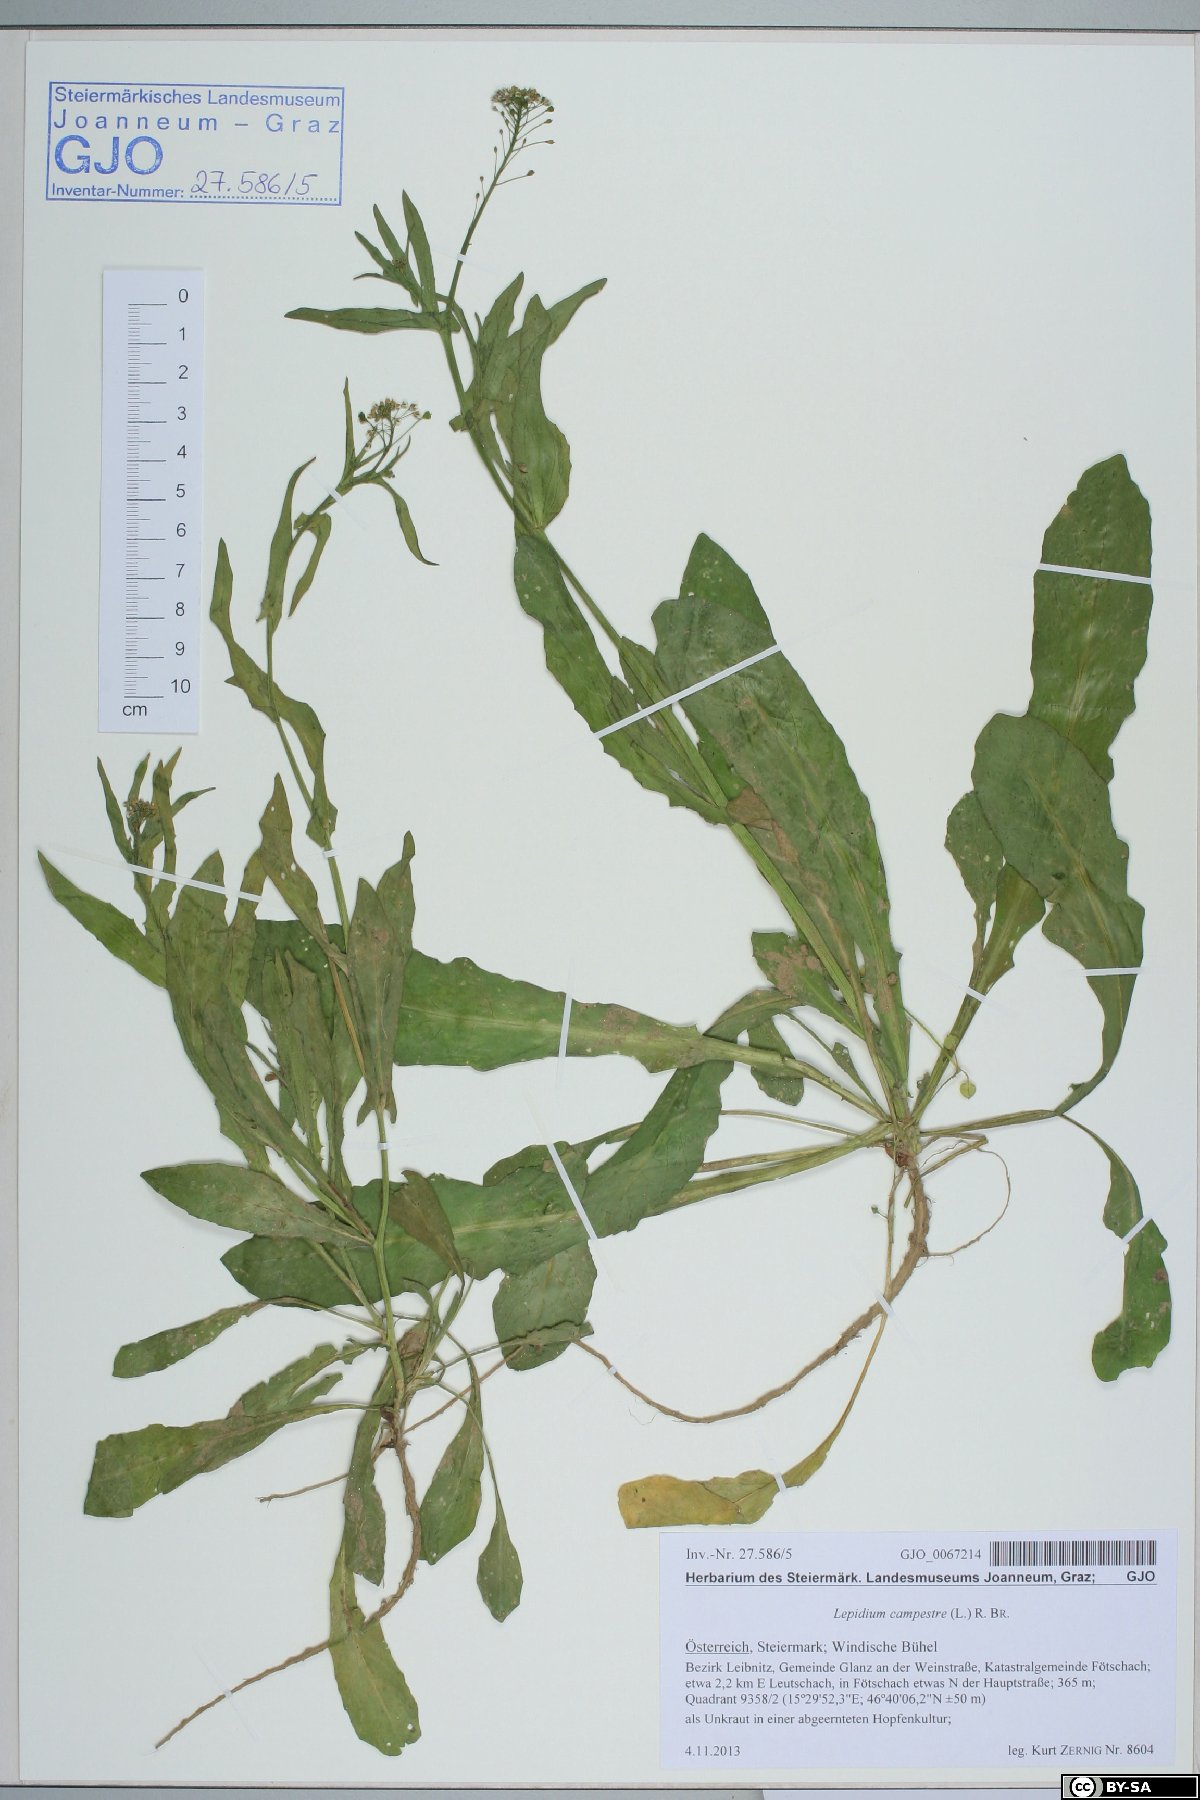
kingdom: Plantae
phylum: Tracheophyta
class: Magnoliopsida
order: Brassicales
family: Brassicaceae
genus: Capsella
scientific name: Capsella bursa-pastoris
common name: Shepherd's purse
